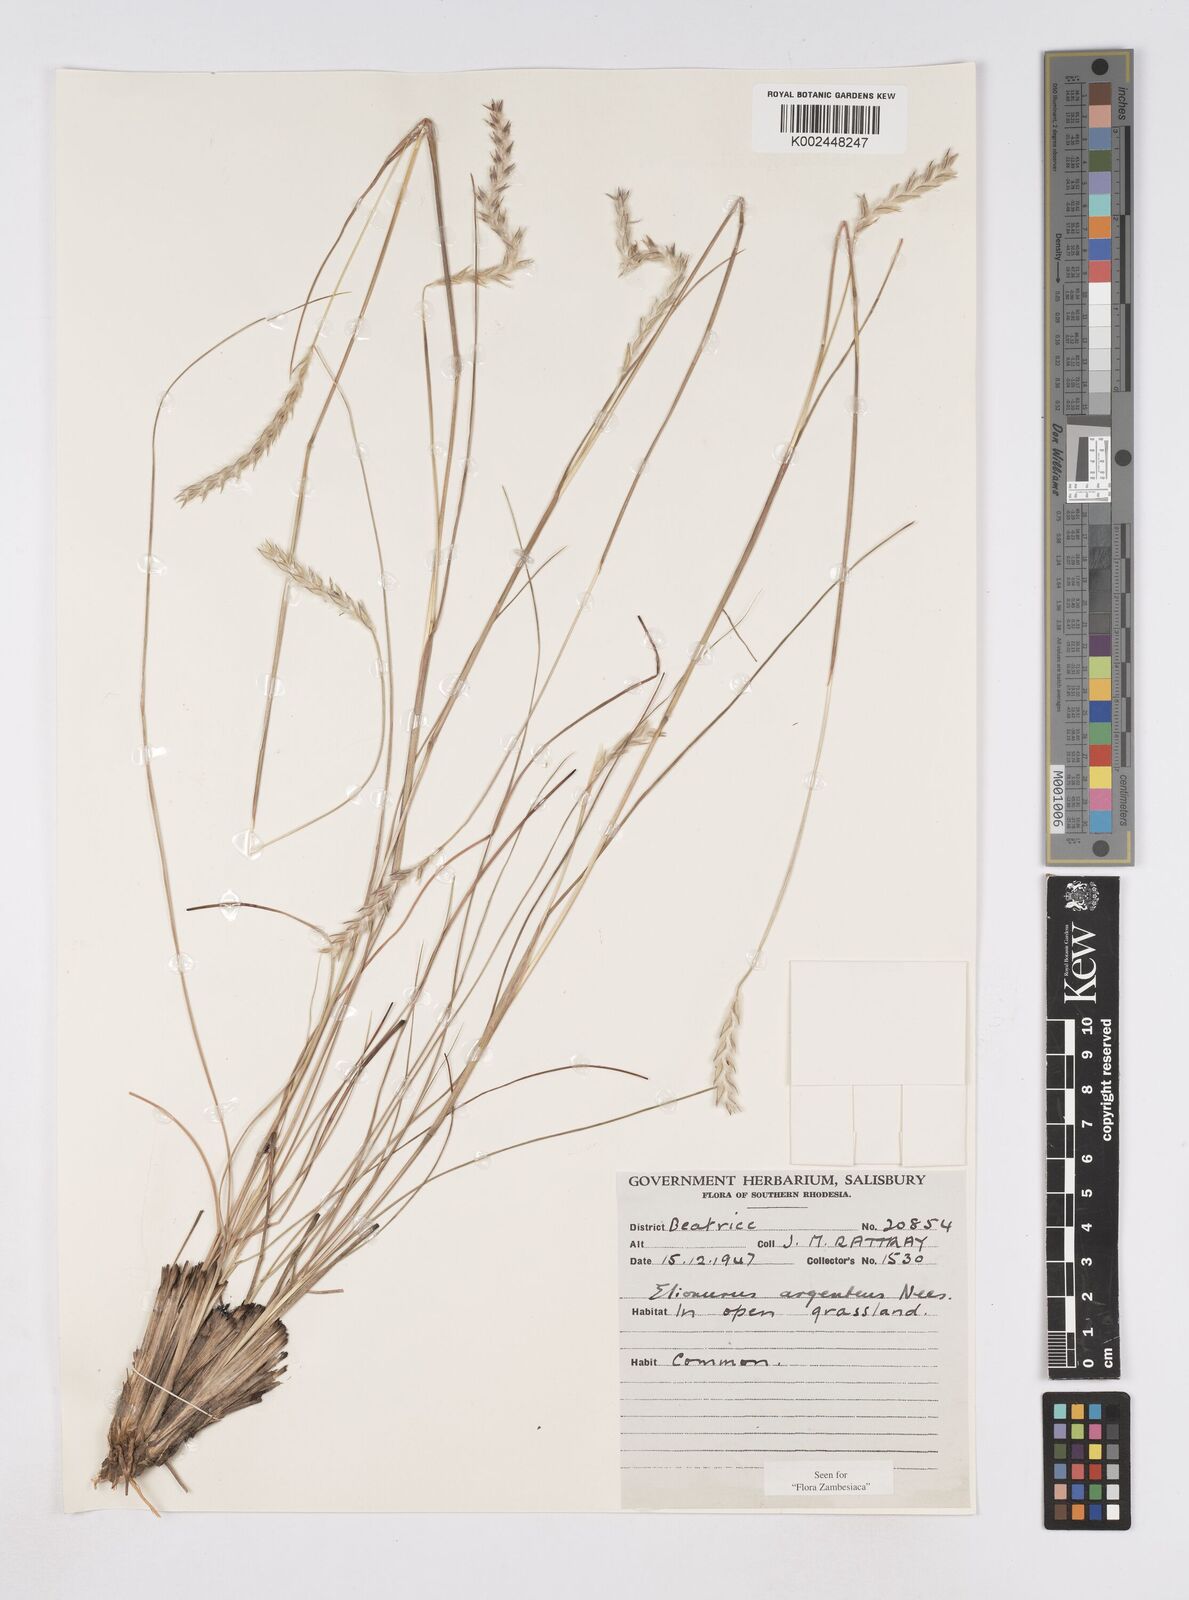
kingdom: Plantae
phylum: Tracheophyta
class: Liliopsida
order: Poales
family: Poaceae
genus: Elionurus
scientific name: Elionurus muticus
